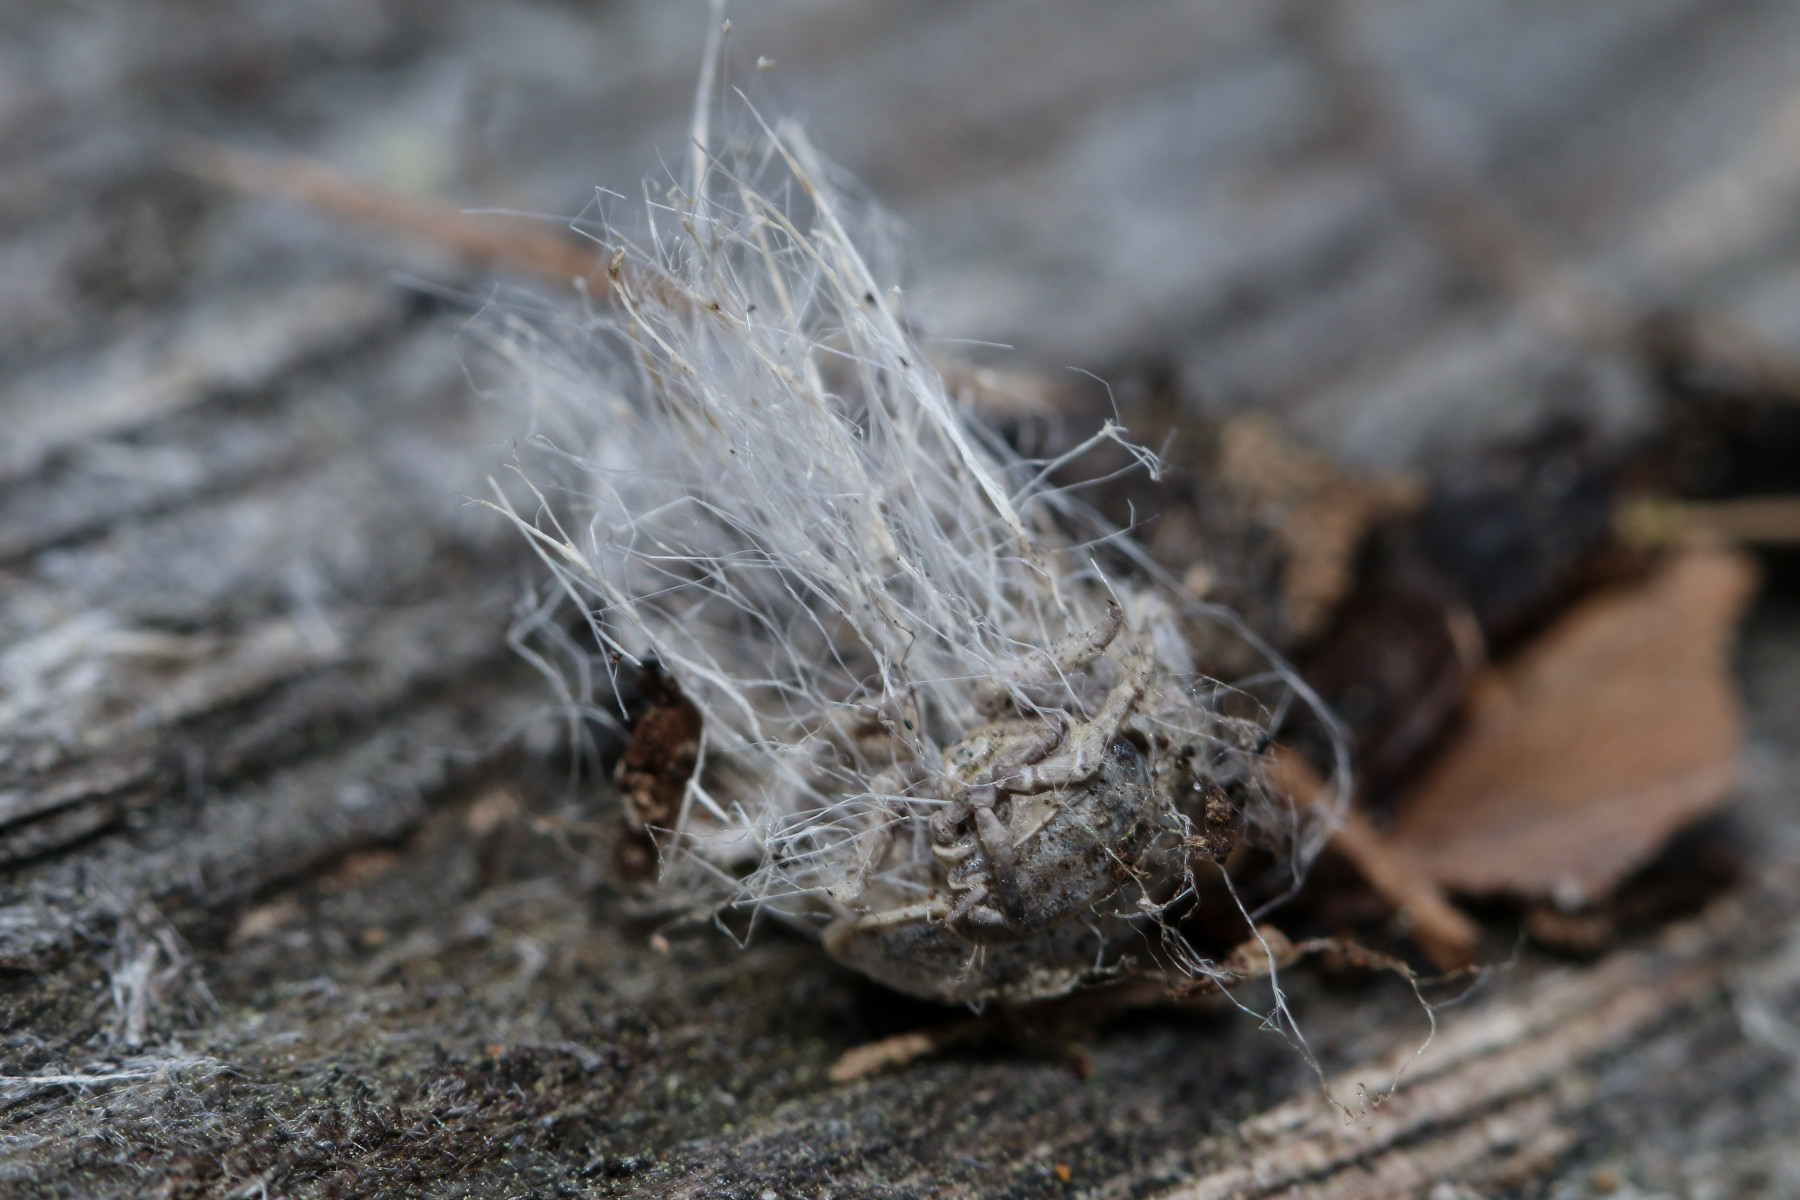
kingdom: Fungi
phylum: Mucoromycota
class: Mucoromycetes
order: Mucorales
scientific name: Mucorales
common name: mugordenen
